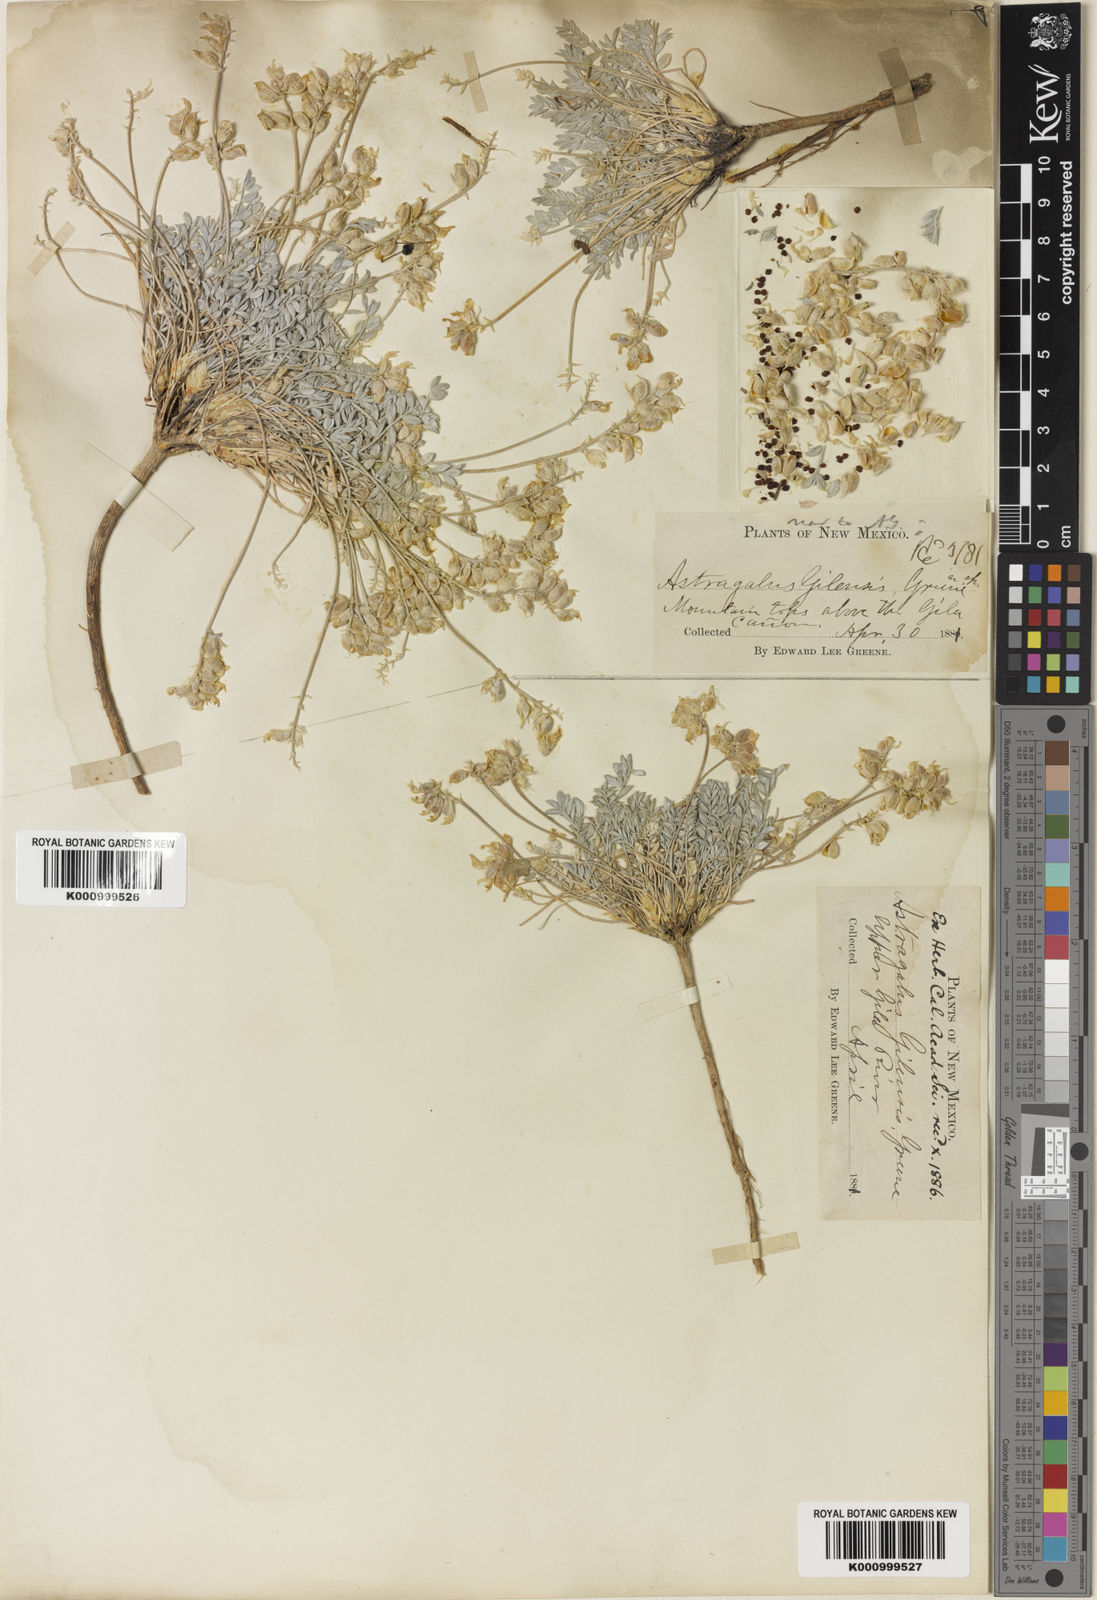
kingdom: Plantae
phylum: Tracheophyta
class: Magnoliopsida
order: Fabales
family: Fabaceae
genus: Astragalus
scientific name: Astragalus gilensis
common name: Gila milk-vetch
